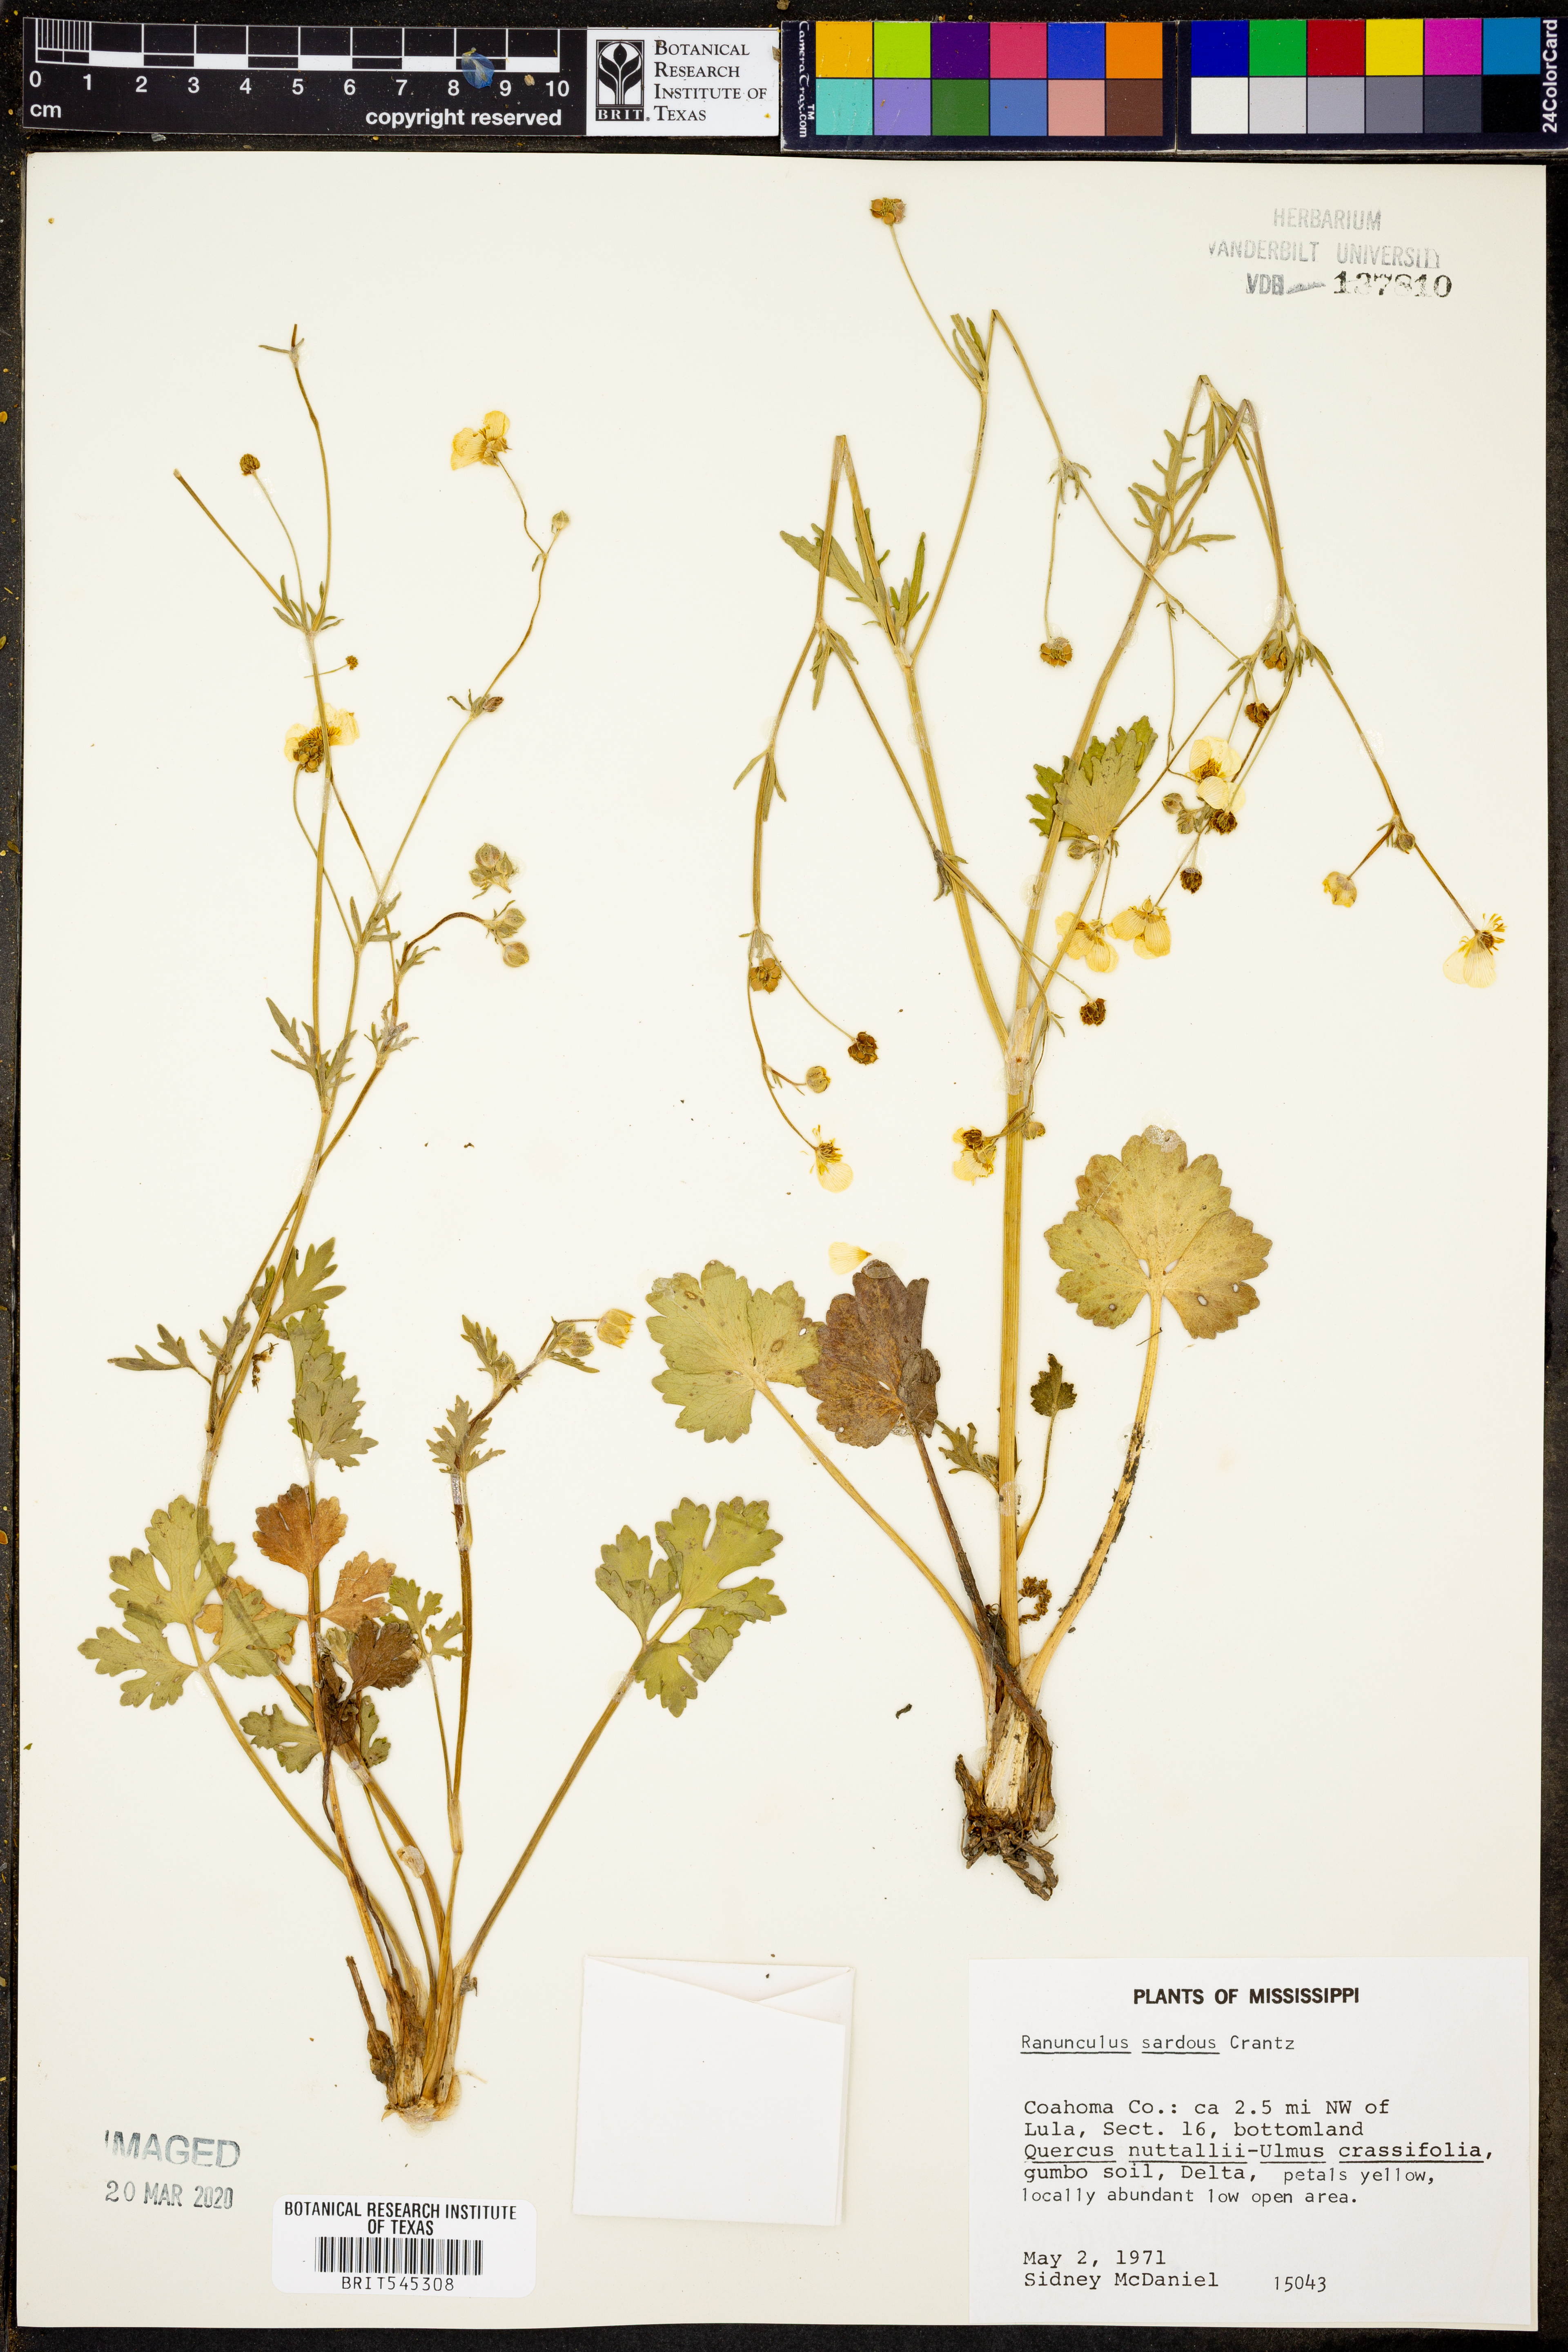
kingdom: Plantae
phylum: Tracheophyta
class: Magnoliopsida
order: Ranunculales
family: Ranunculaceae
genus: Ranunculus
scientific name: Ranunculus sardous
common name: Hairy buttercup
